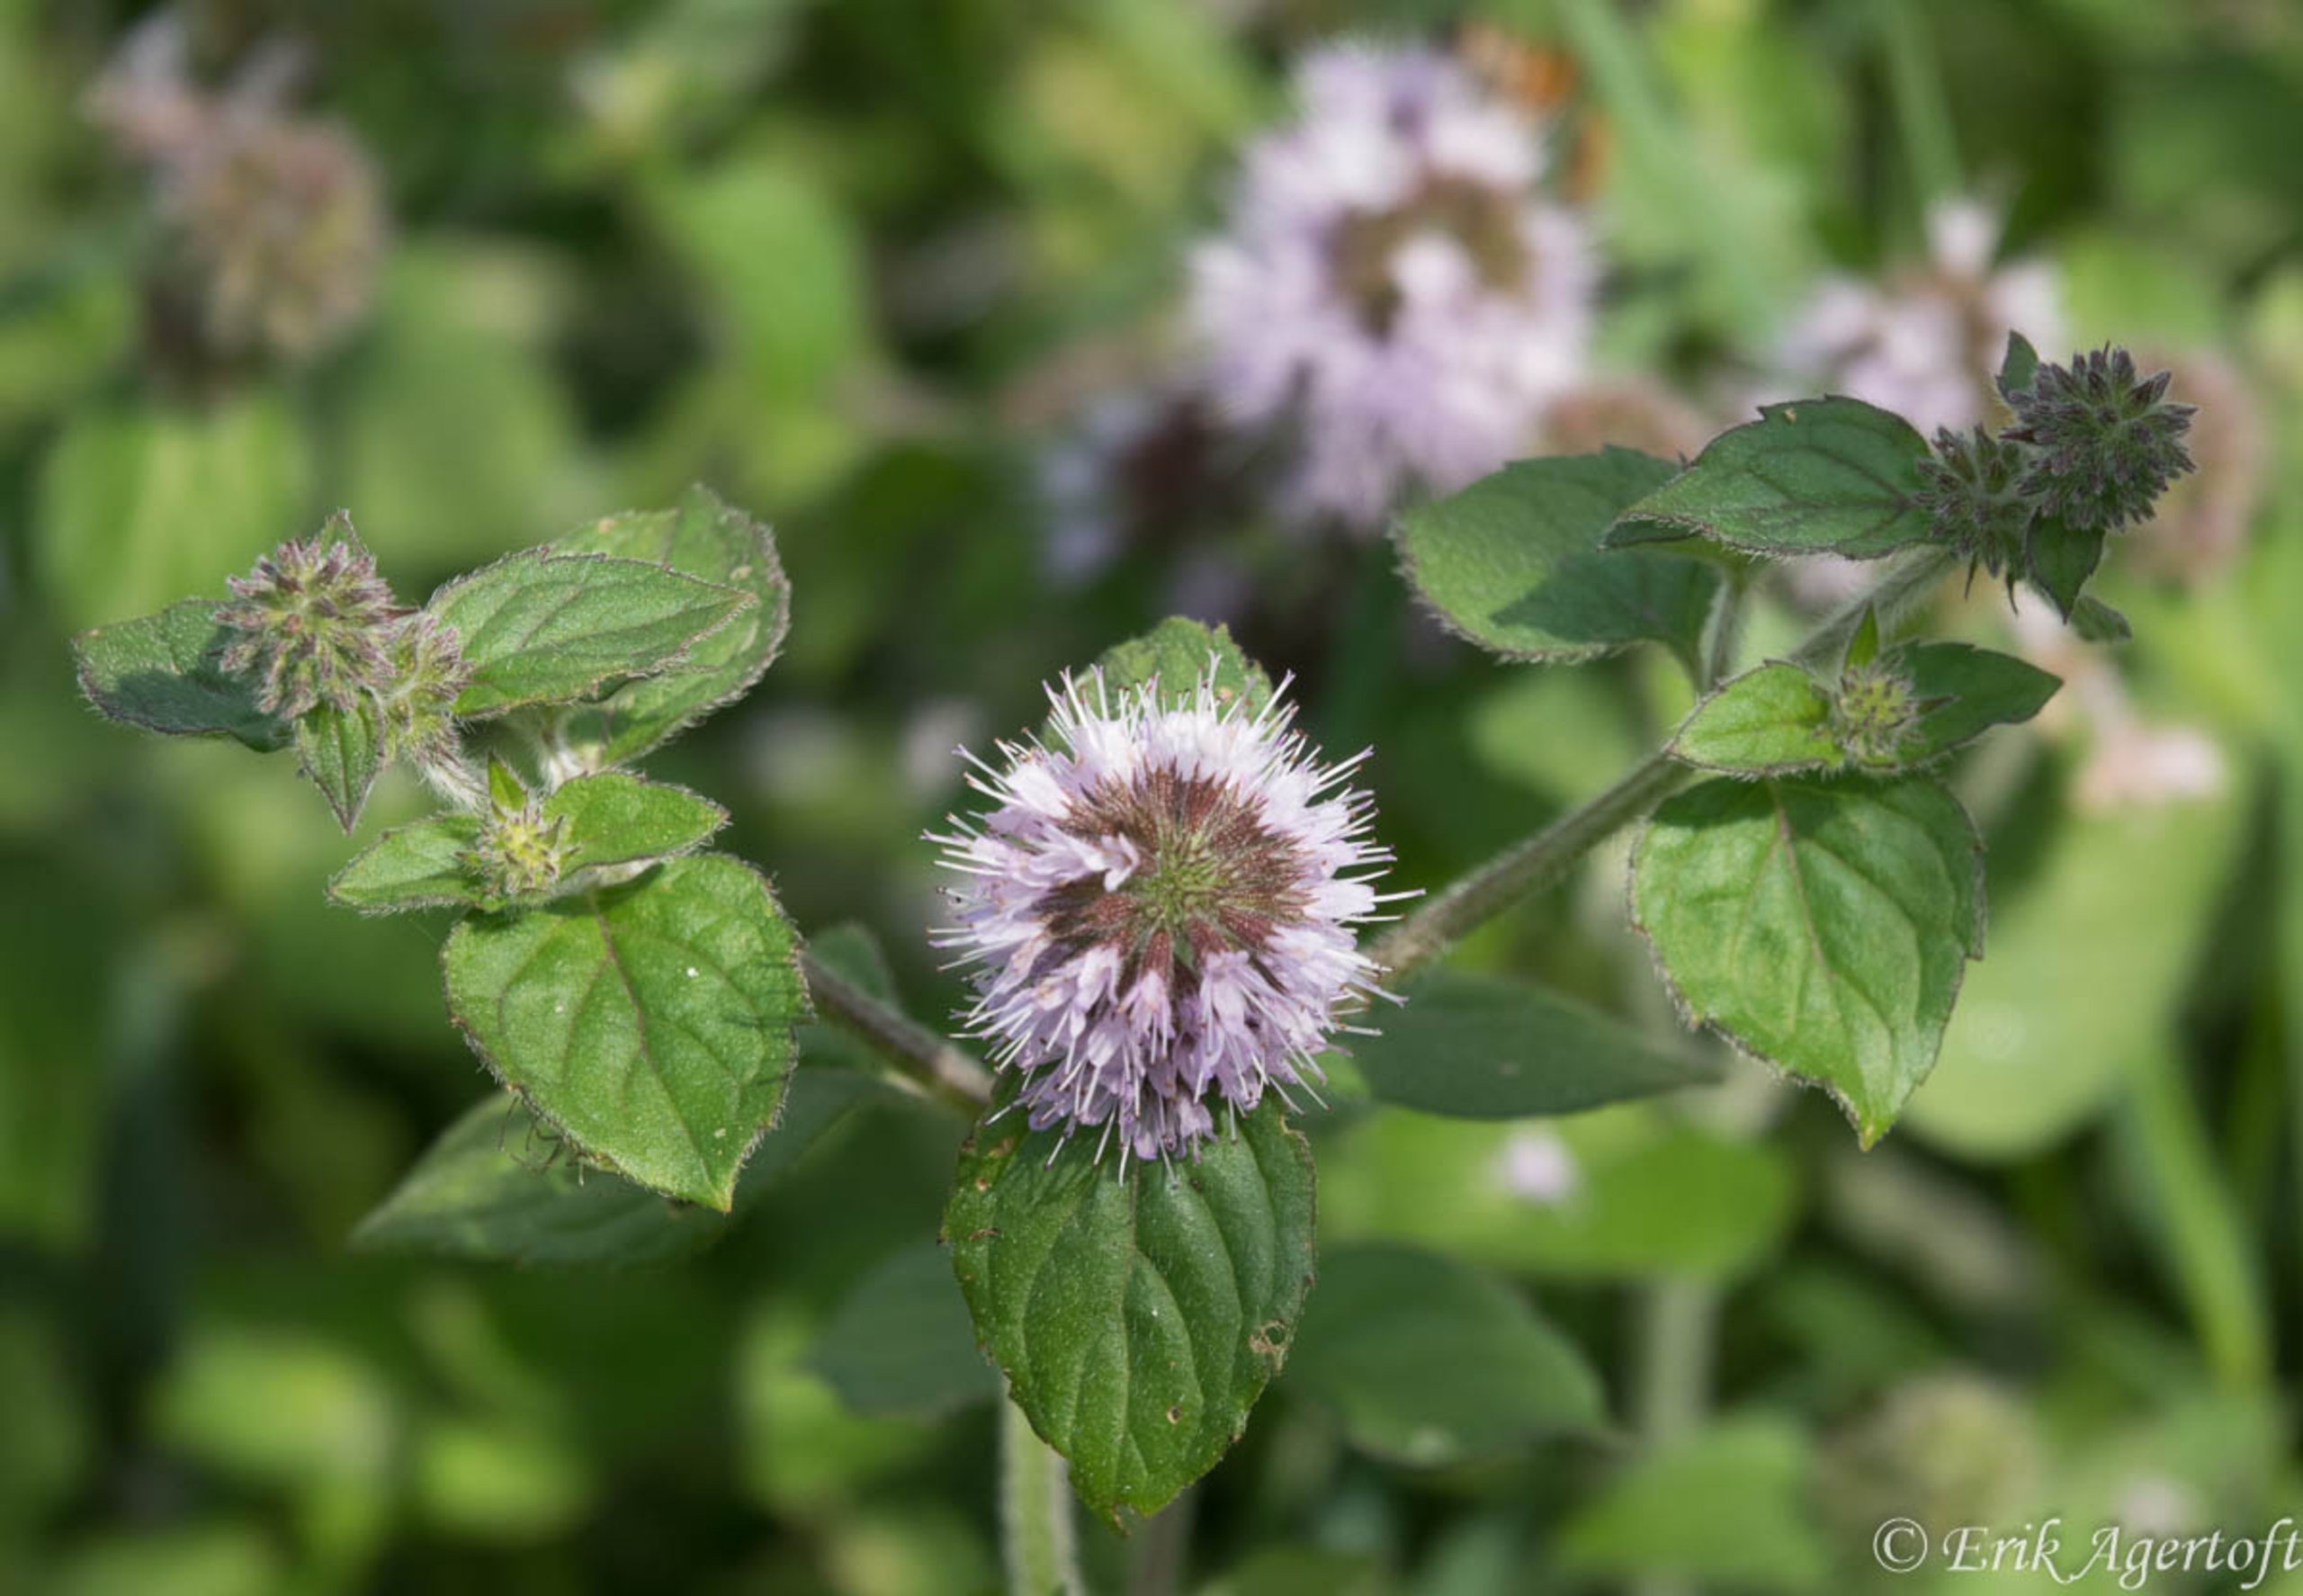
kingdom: Plantae
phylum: Tracheophyta
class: Magnoliopsida
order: Lamiales
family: Lamiaceae
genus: Mentha
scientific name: Mentha aquatica
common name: Vand-mynte
